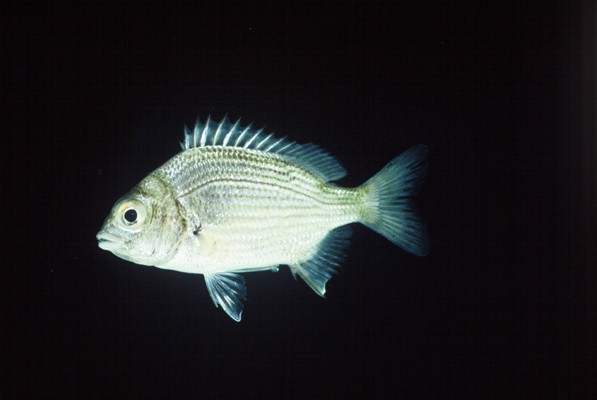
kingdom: Animalia
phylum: Chordata
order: Perciformes
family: Sparidae
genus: Acanthopagrus
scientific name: Acanthopagrus berda
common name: Picnic seabream
